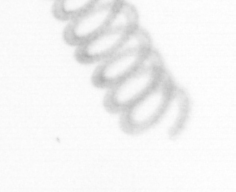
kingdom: Chromista
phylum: Ochrophyta
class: Bacillariophyceae
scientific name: Bacillariophyceae
